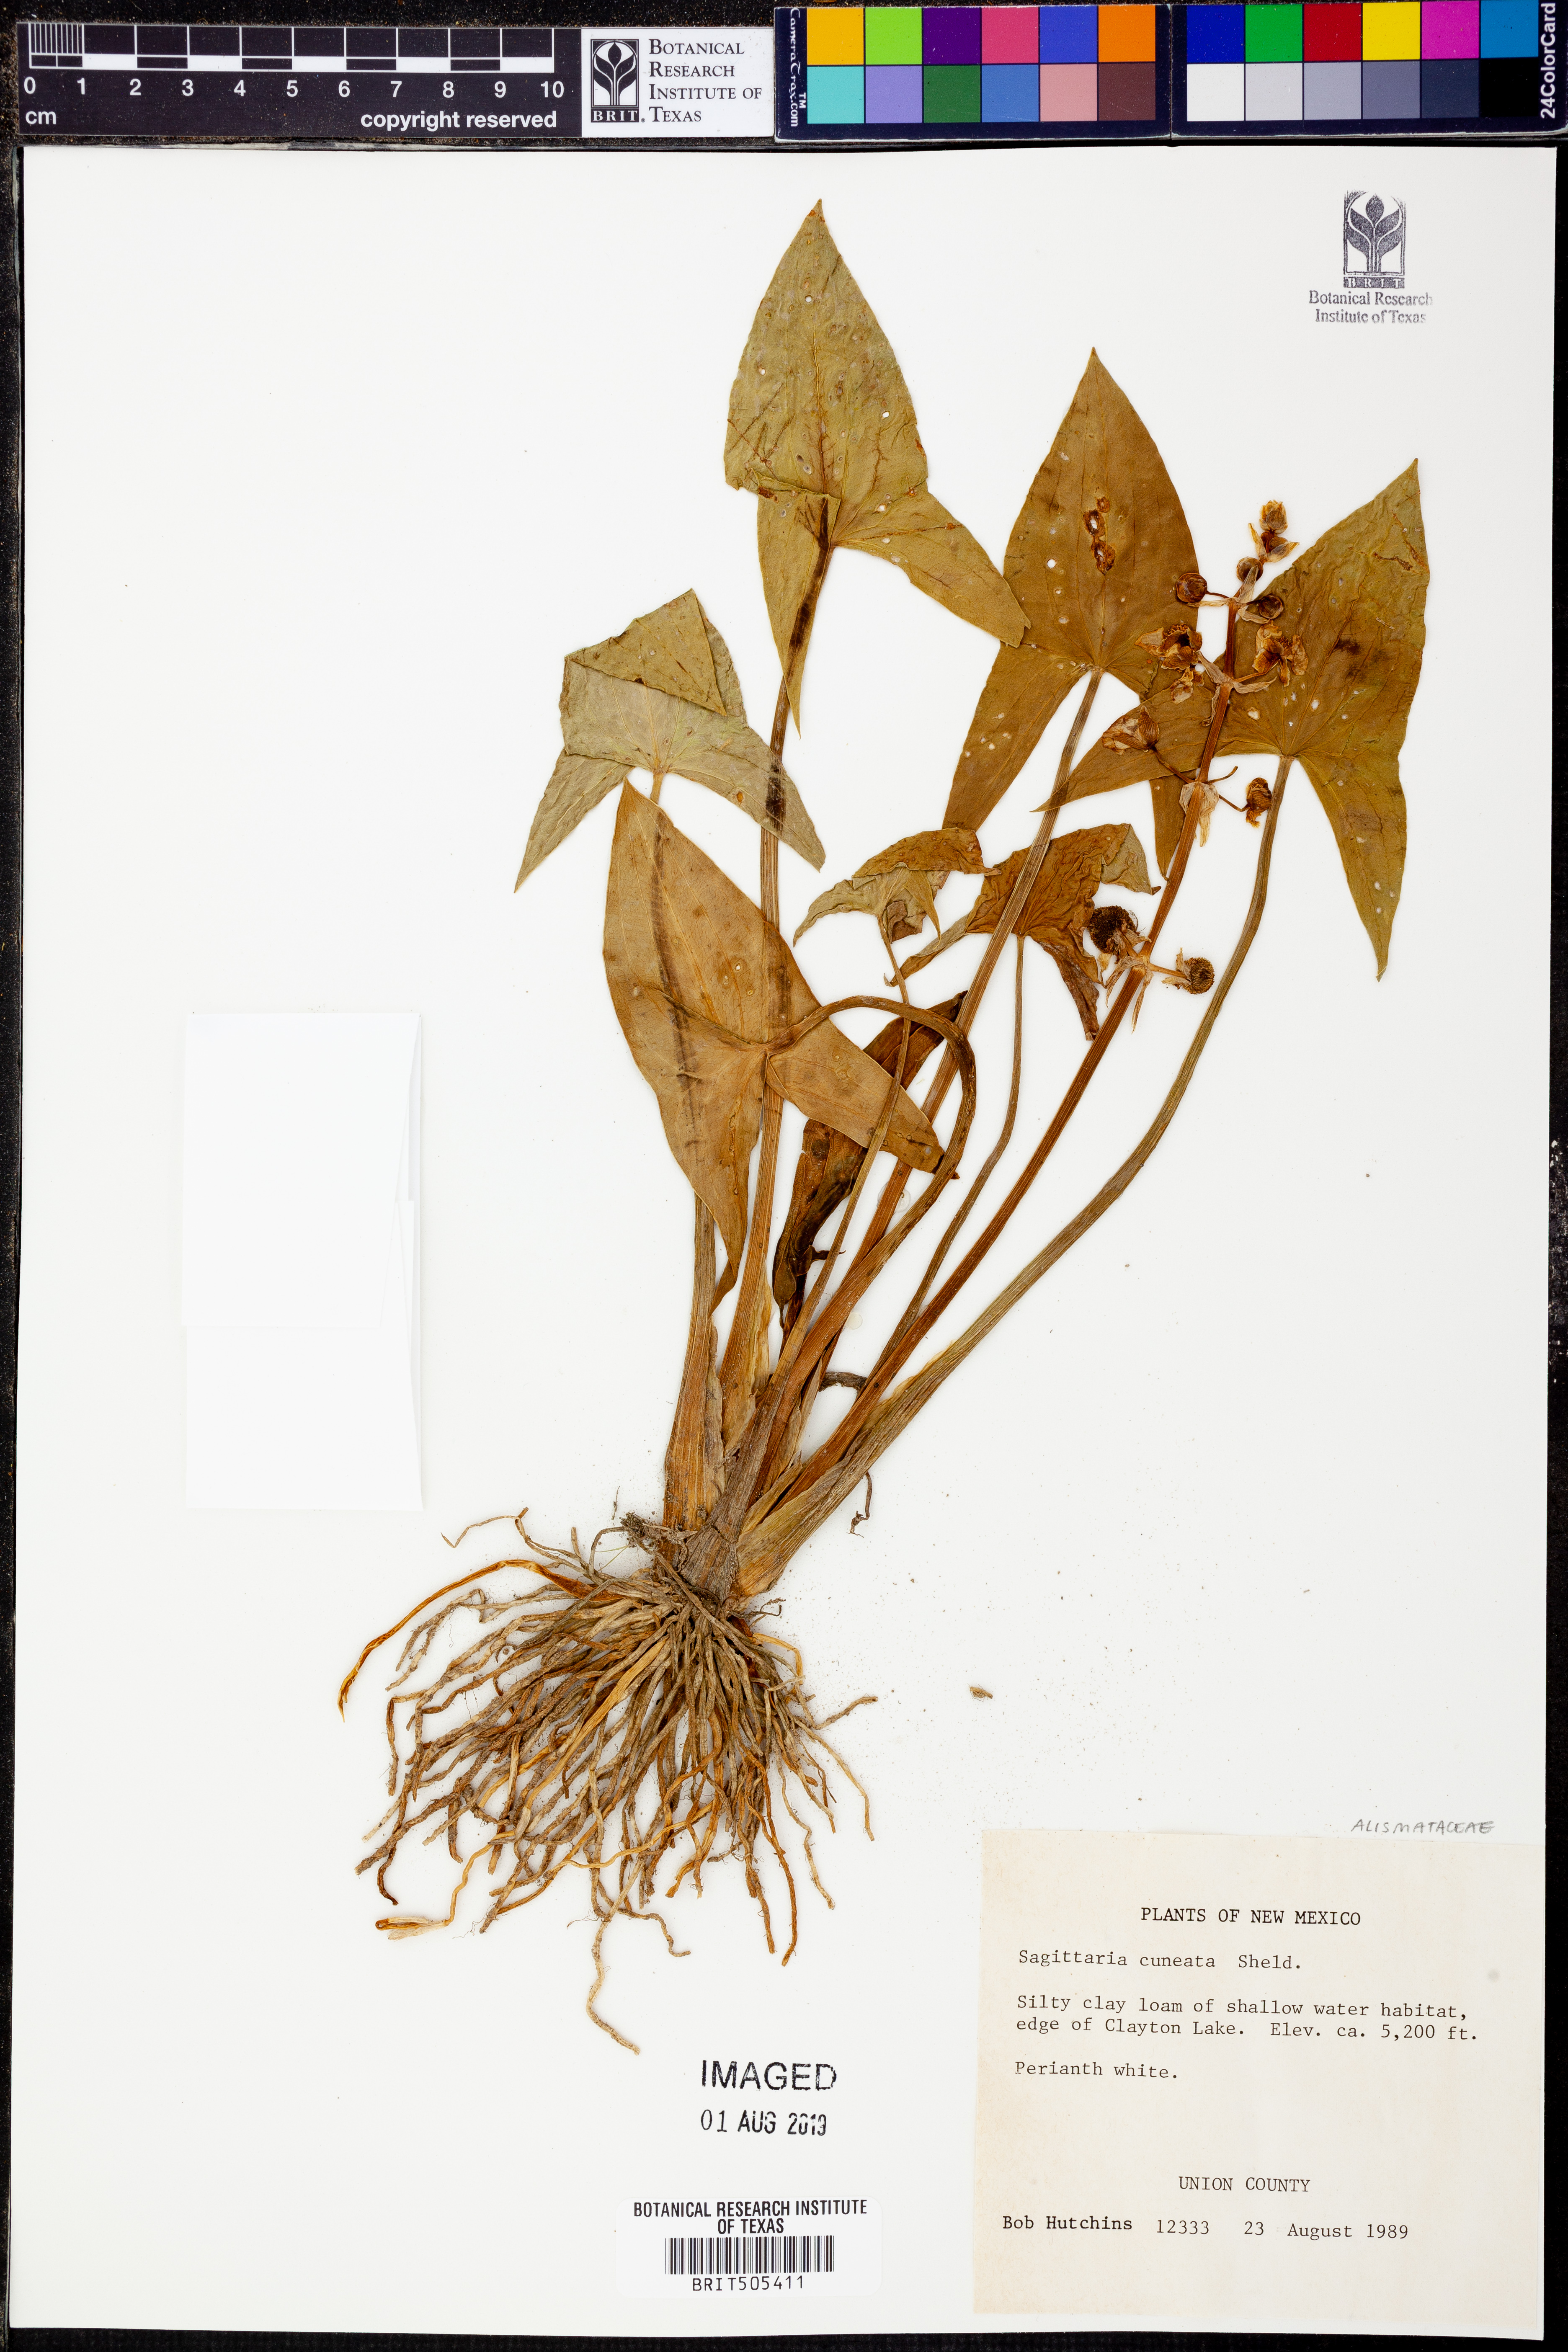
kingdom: Plantae
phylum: Tracheophyta
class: Liliopsida
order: Alismatales
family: Alismataceae
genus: Sagittaria
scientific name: Sagittaria cuneata
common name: Northern arrowhead
